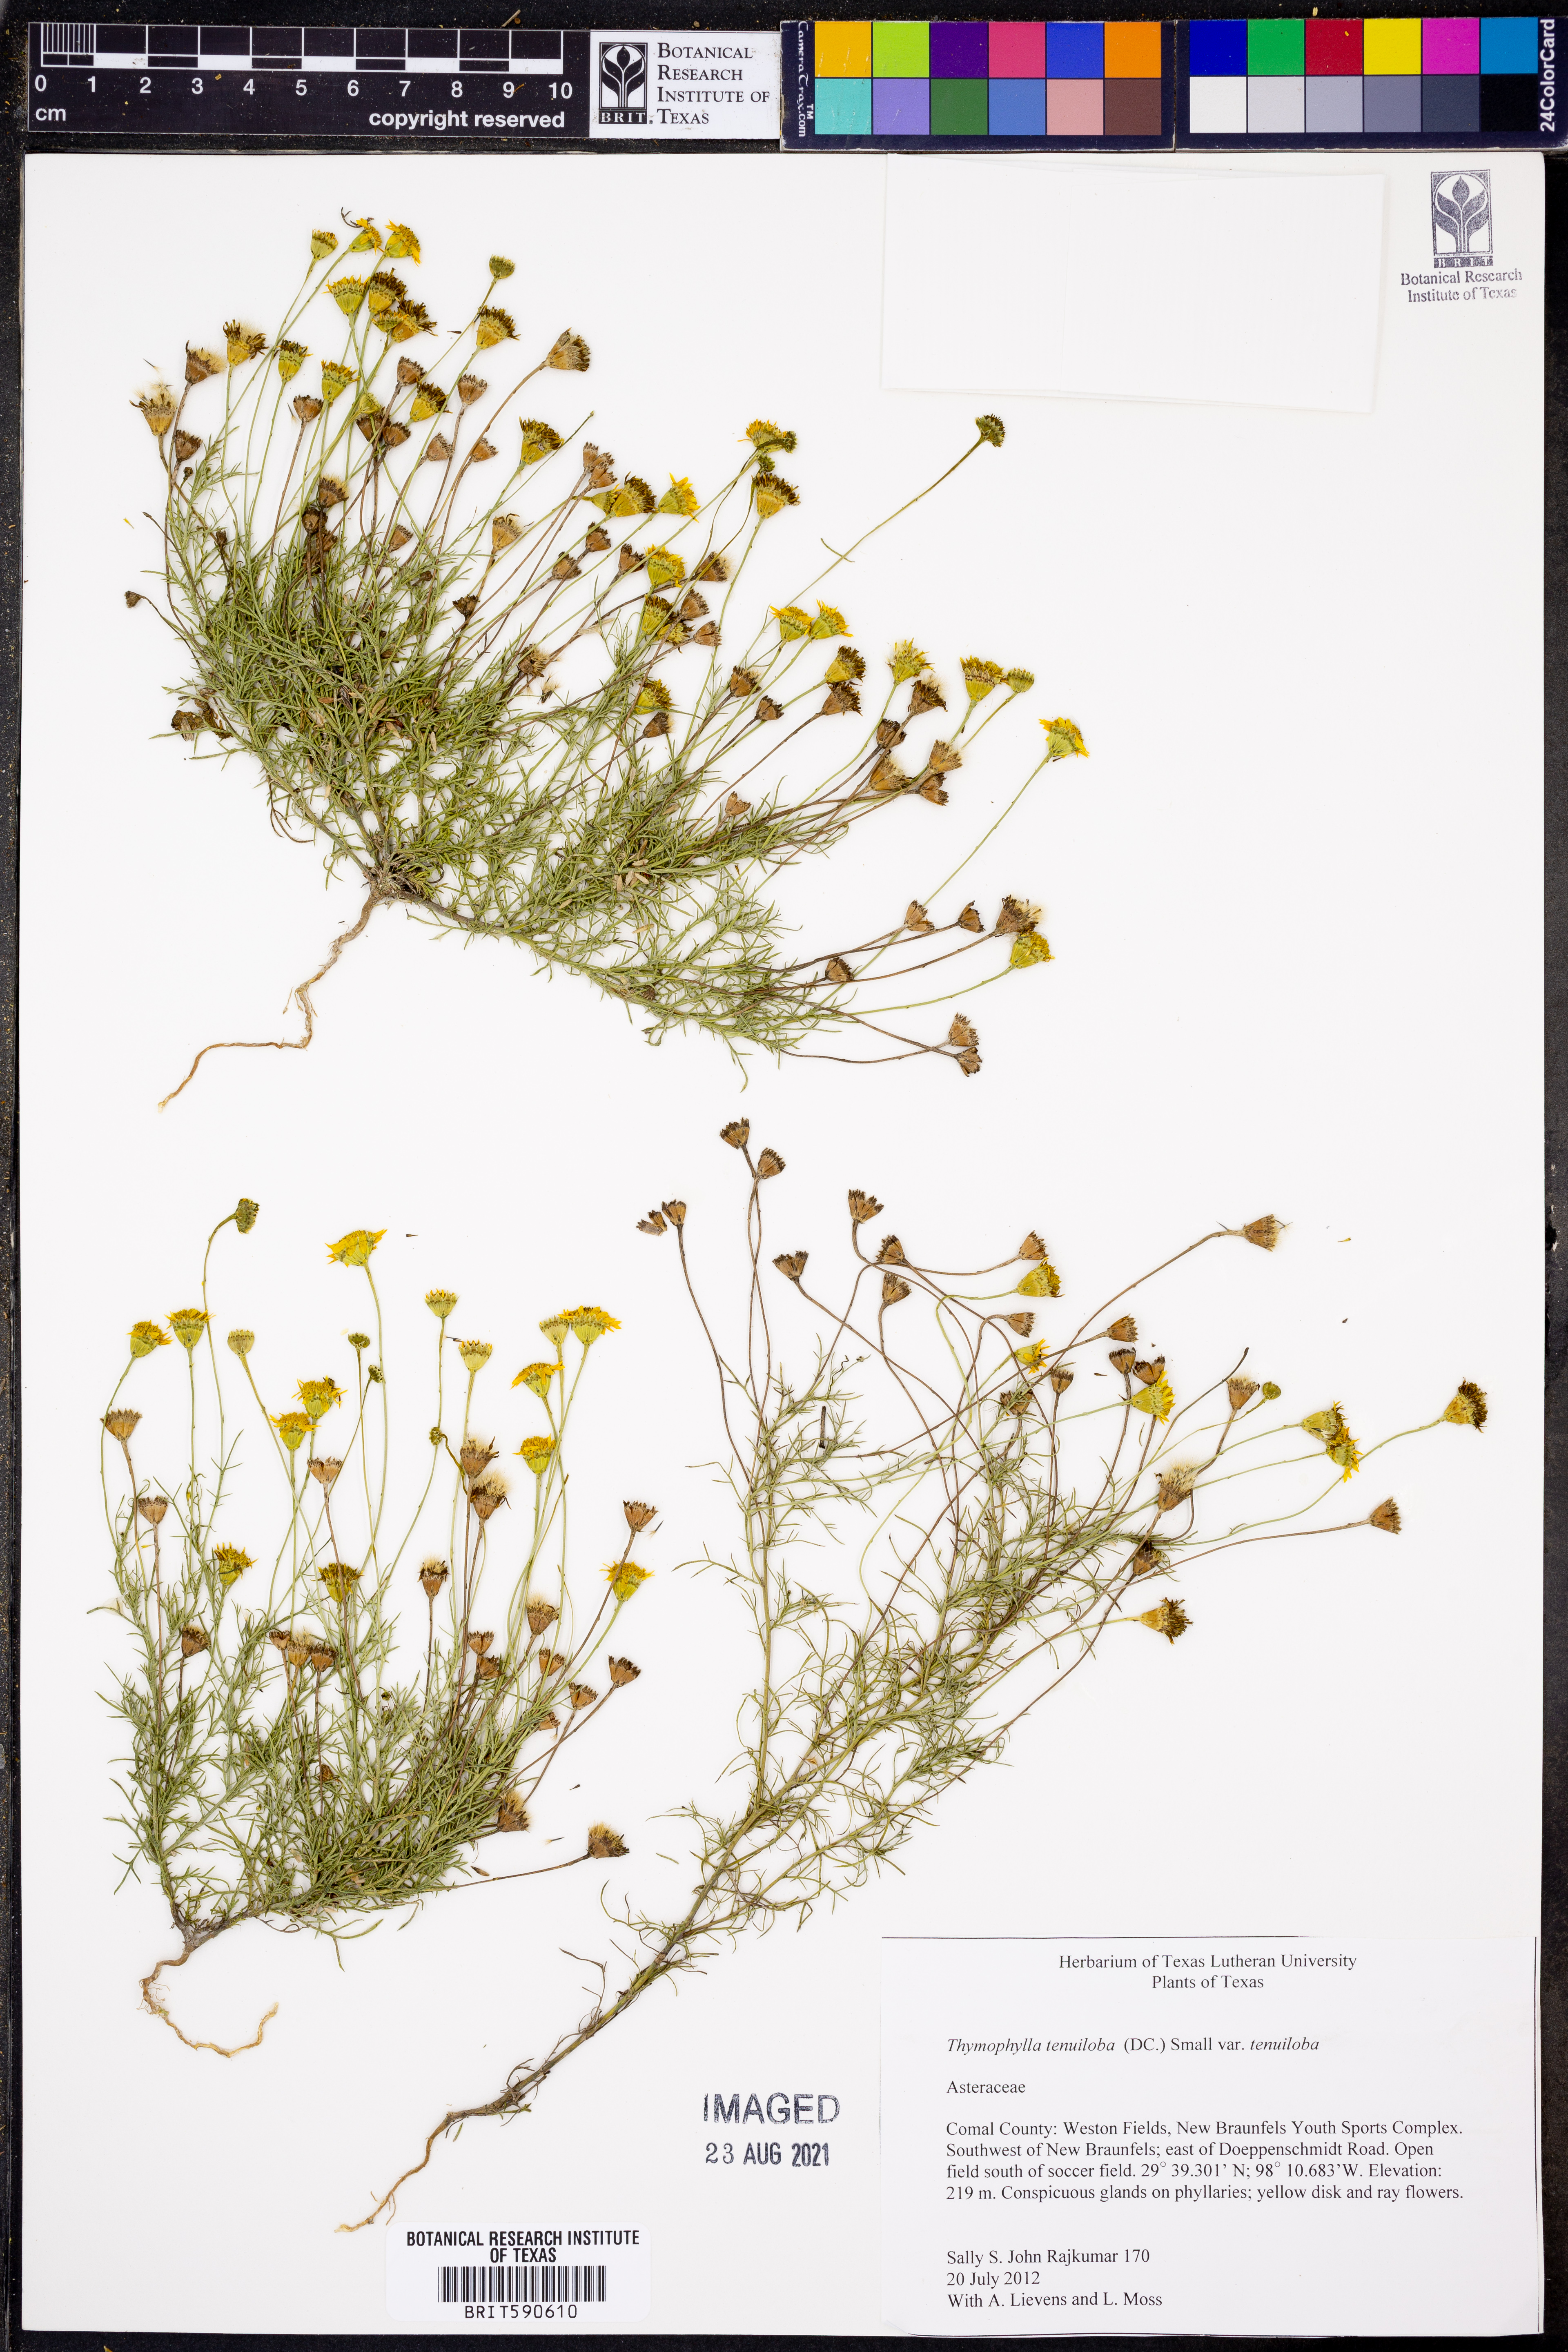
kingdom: Plantae
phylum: Tracheophyta
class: Magnoliopsida
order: Asterales
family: Asteraceae
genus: Thymophylla
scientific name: Thymophylla tenuiloba
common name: Dahlberg's daisy
